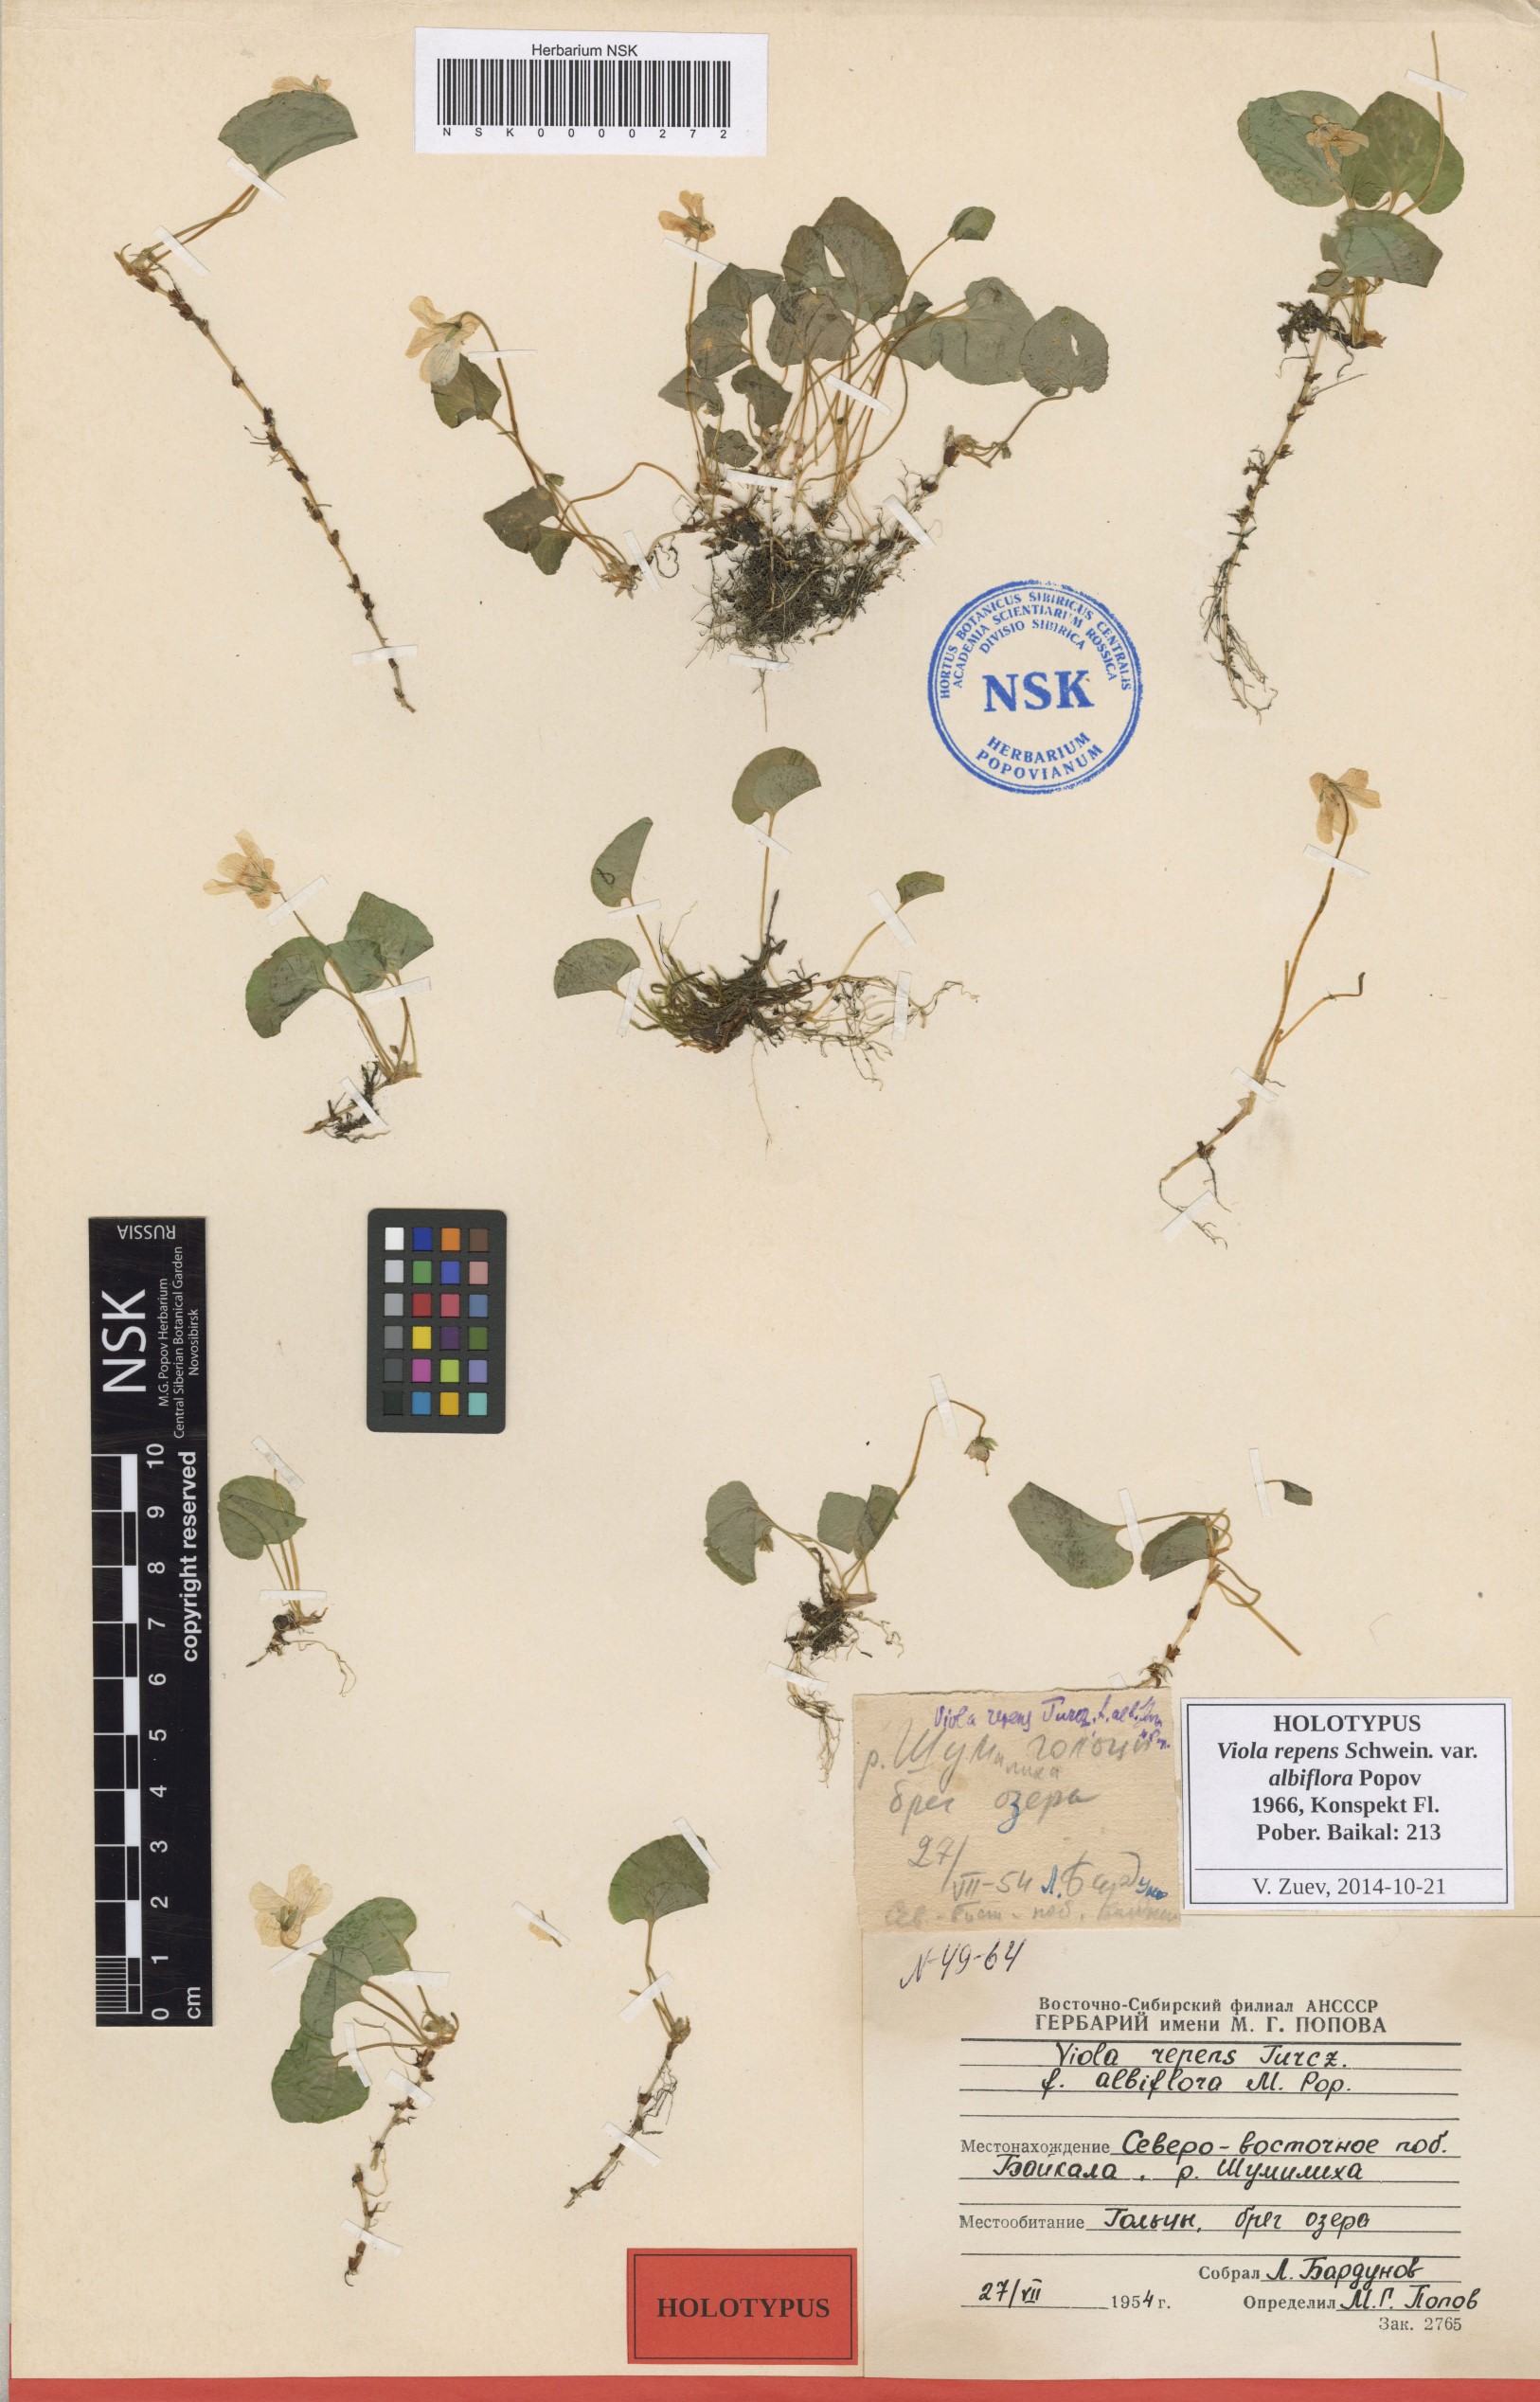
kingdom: Plantae
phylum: Tracheophyta
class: Magnoliopsida
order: Malpighiales
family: Violaceae
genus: Viola
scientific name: Viola epipsila
